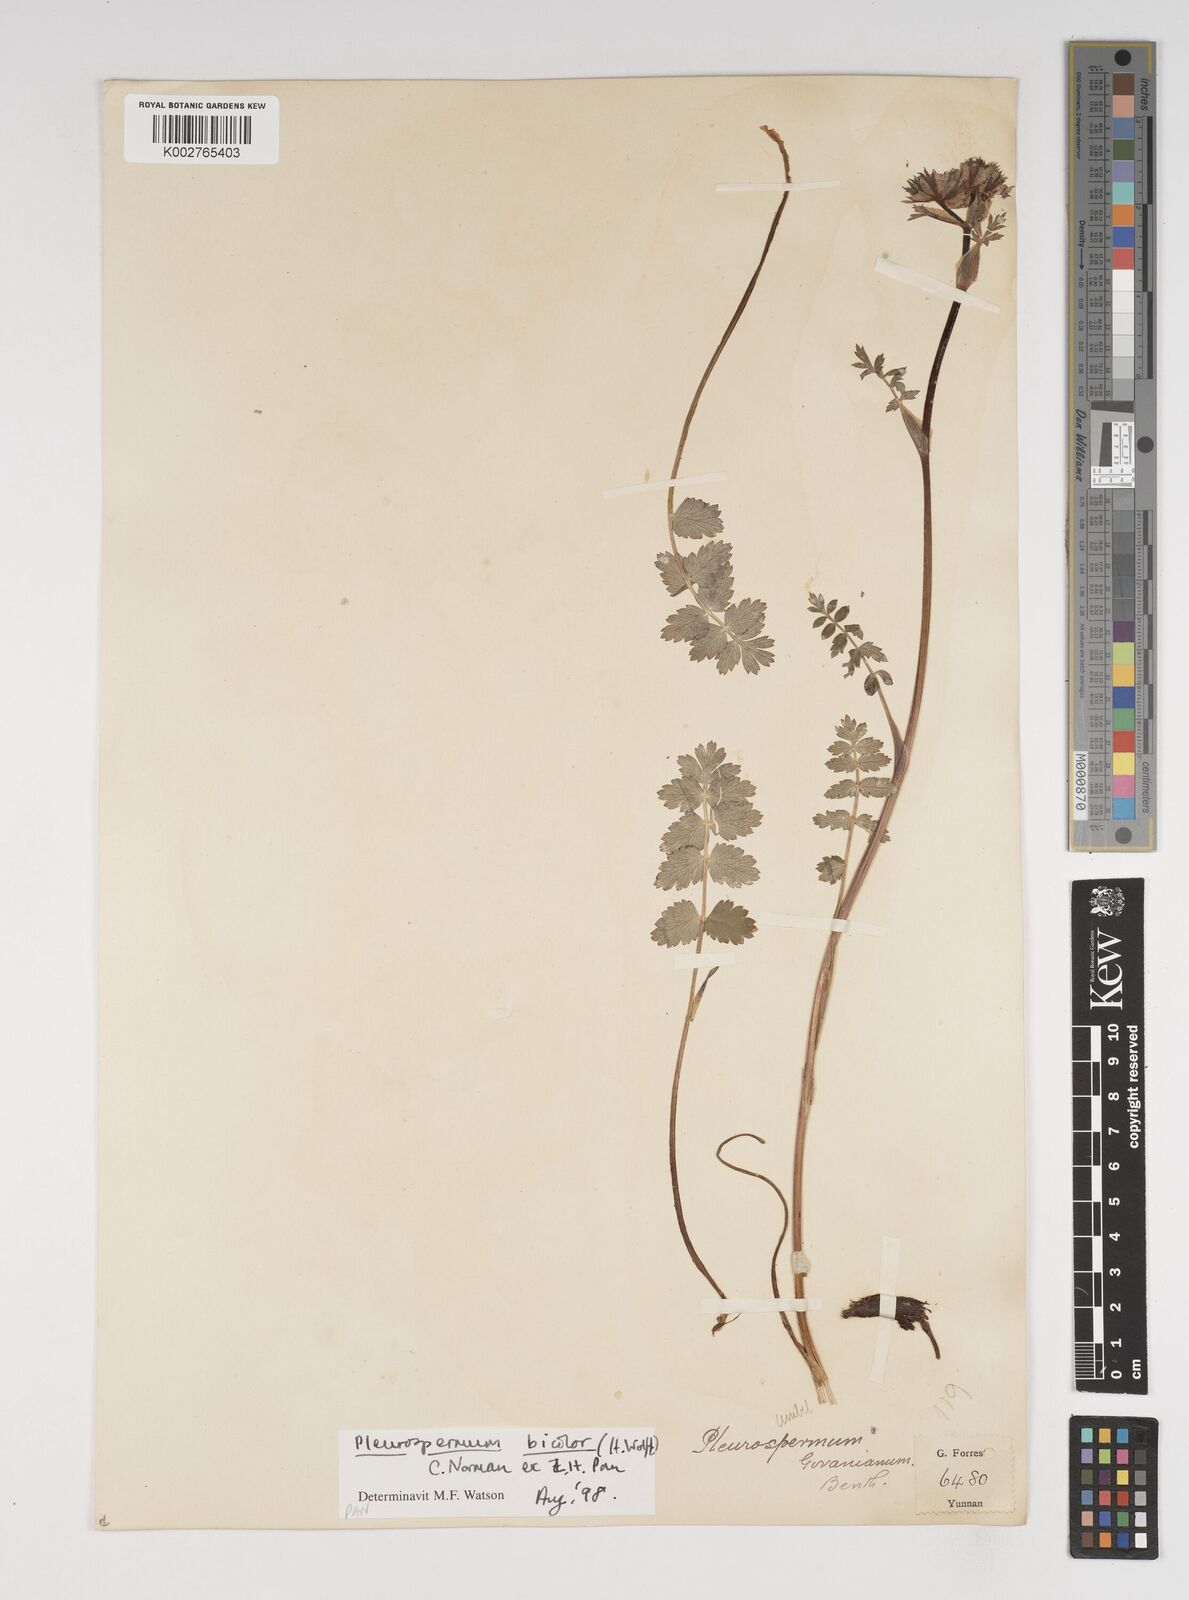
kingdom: Plantae
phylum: Tracheophyta
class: Magnoliopsida
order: Apiales
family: Apiaceae
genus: Pleurospermopsis
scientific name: Pleurospermopsis bicolor
